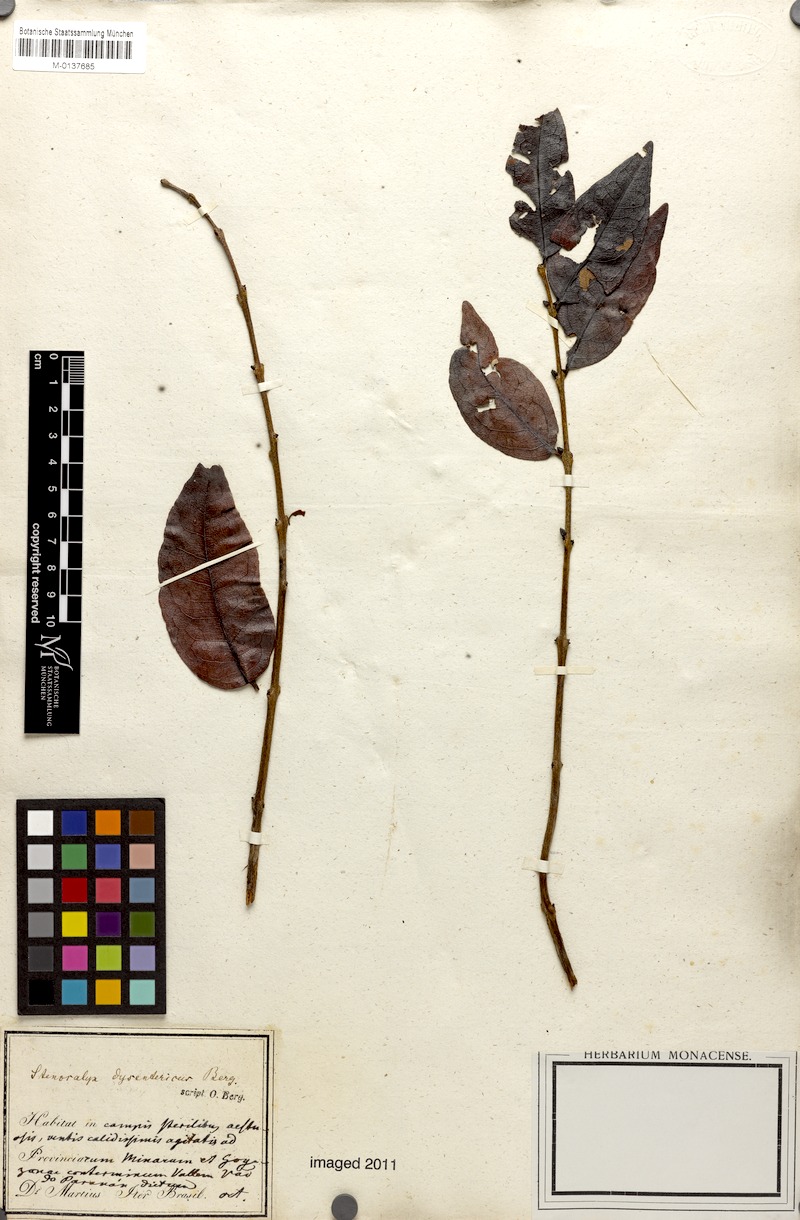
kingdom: Plantae
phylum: Tracheophyta
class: Magnoliopsida
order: Myrtales
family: Myrtaceae
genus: Eugenia
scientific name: Eugenia dysenterica
